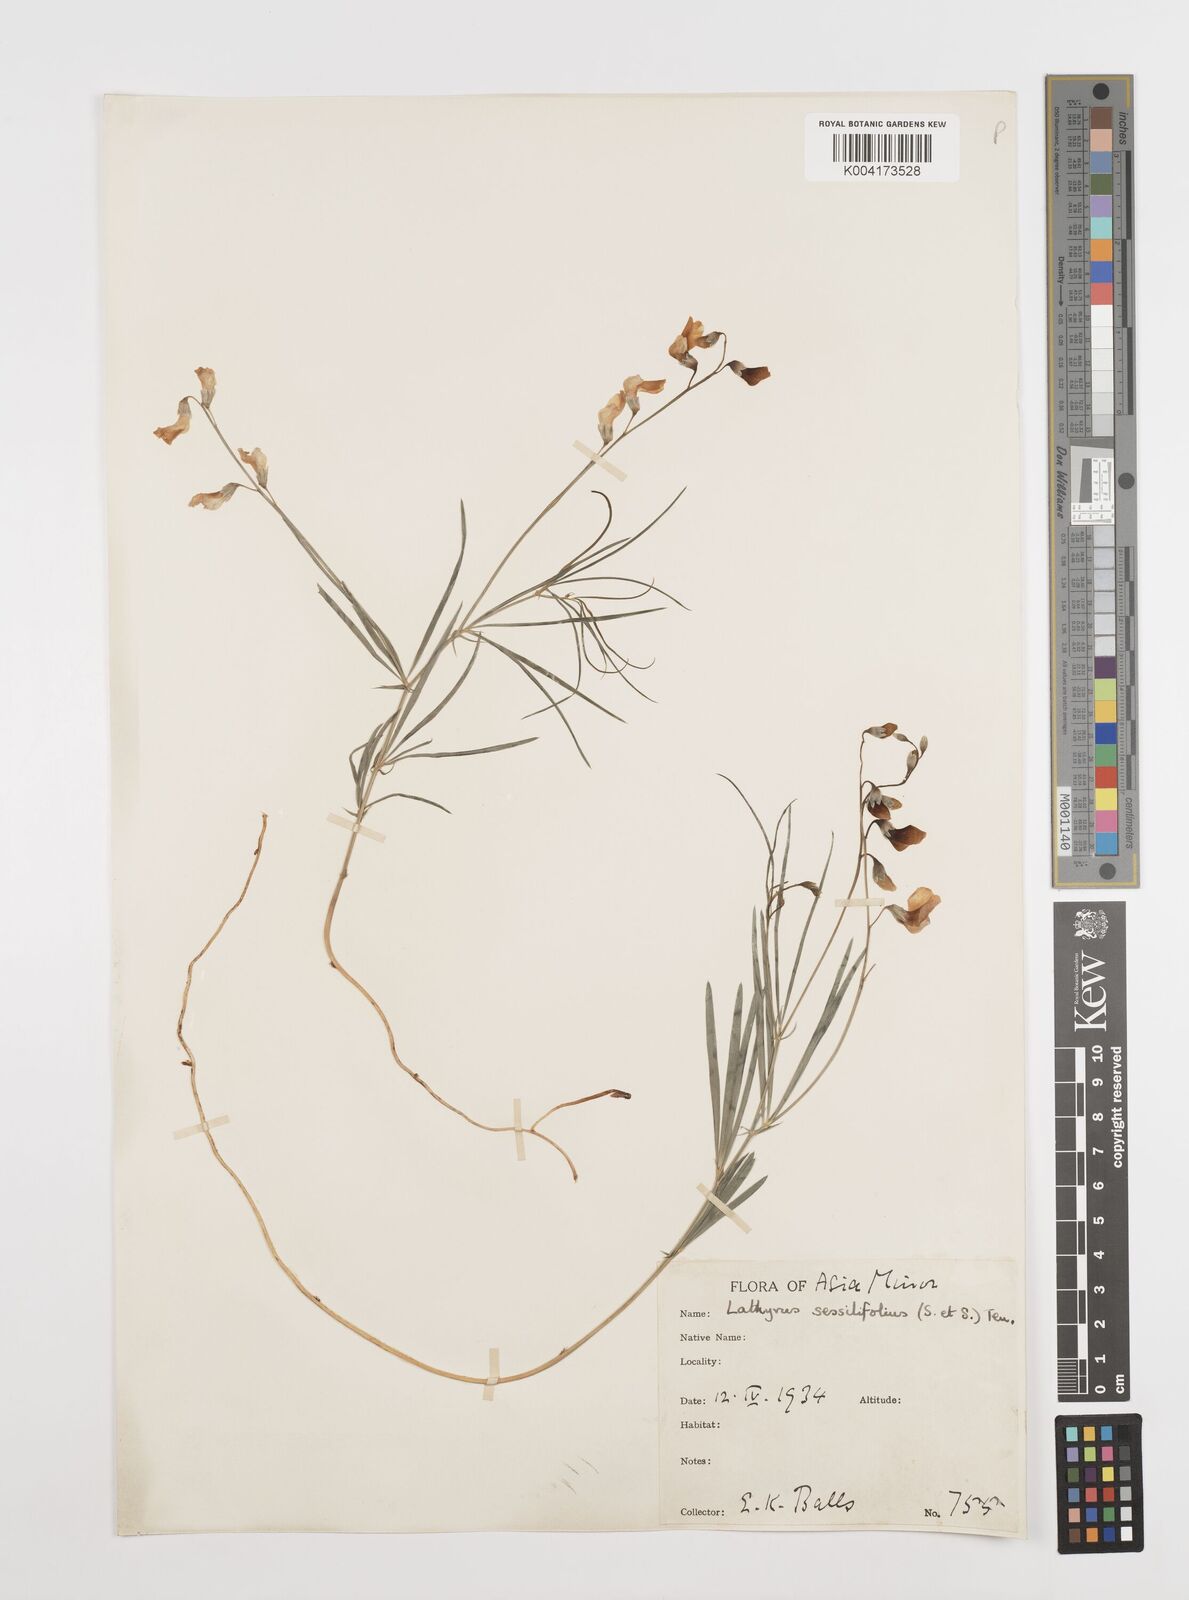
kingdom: Plantae
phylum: Tracheophyta
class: Magnoliopsida
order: Fabales
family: Fabaceae
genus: Lathyrus
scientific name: Lathyrus spathulatus
